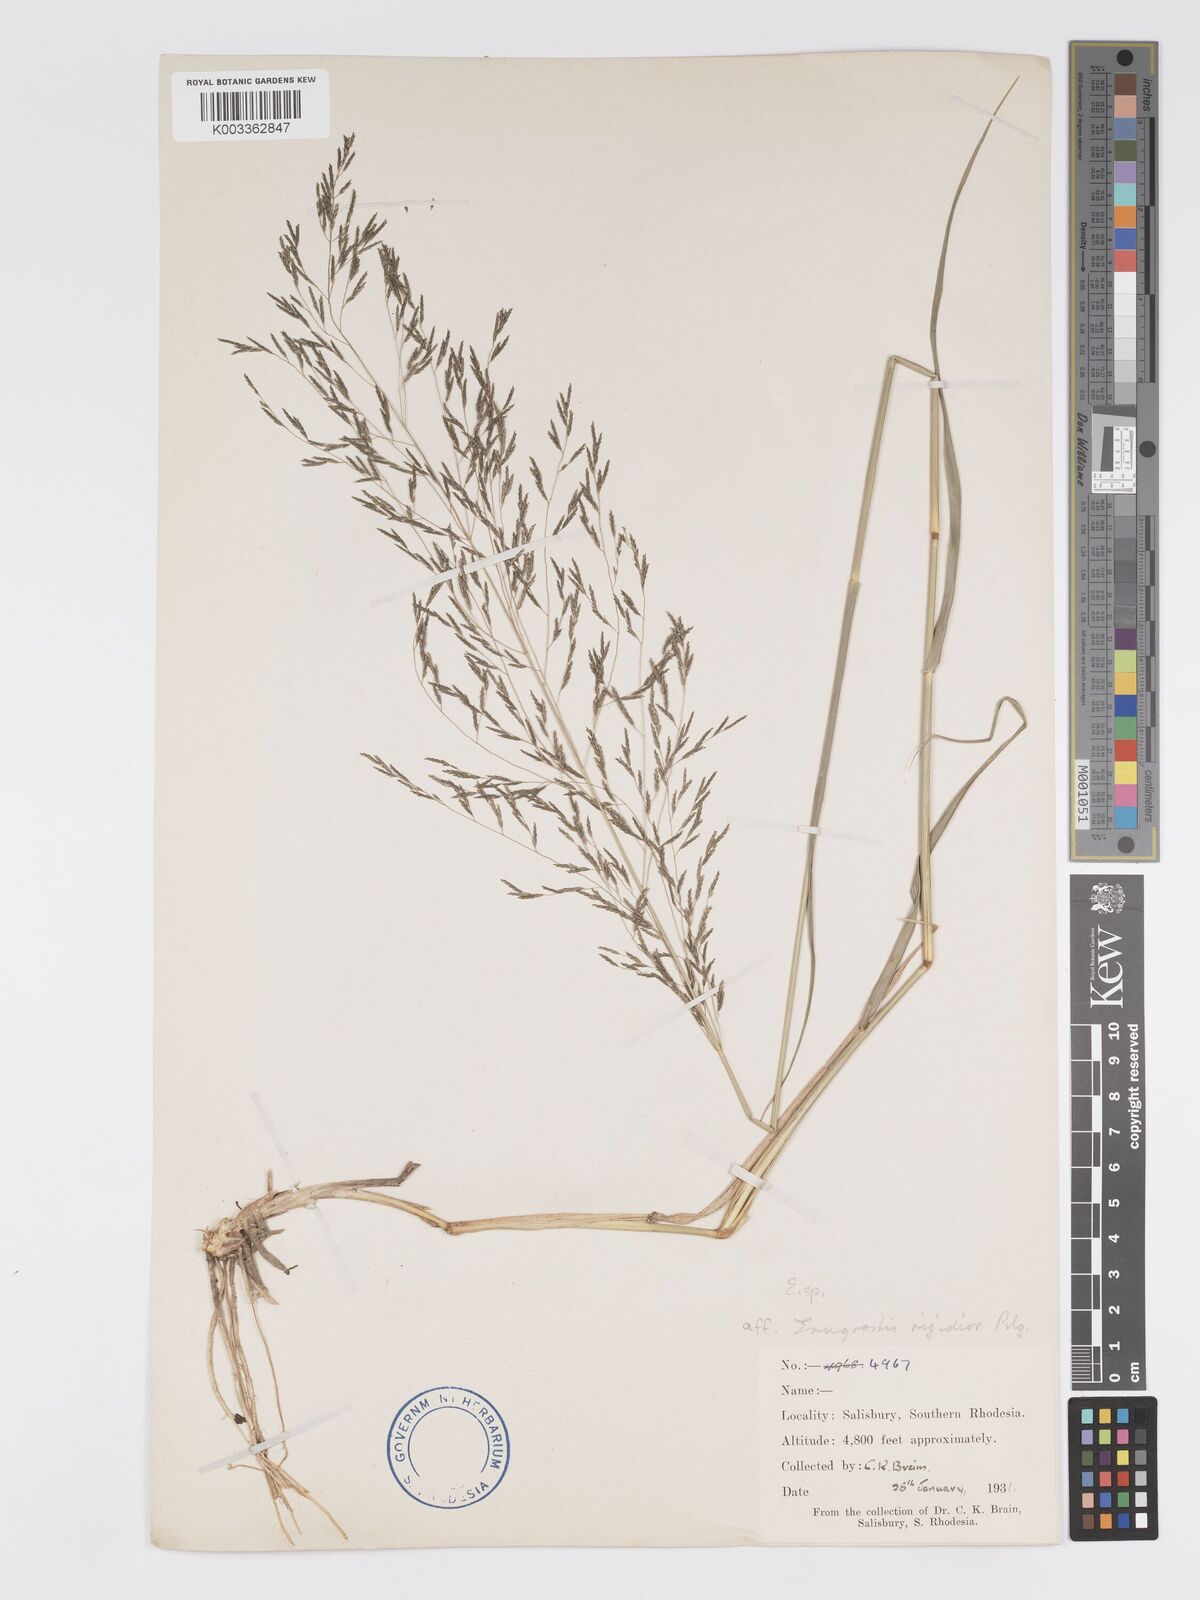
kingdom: Plantae
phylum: Tracheophyta
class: Liliopsida
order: Poales
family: Poaceae
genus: Eragrostis
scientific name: Eragrostis cylindriflora
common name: Cylinderflower lovegrass
